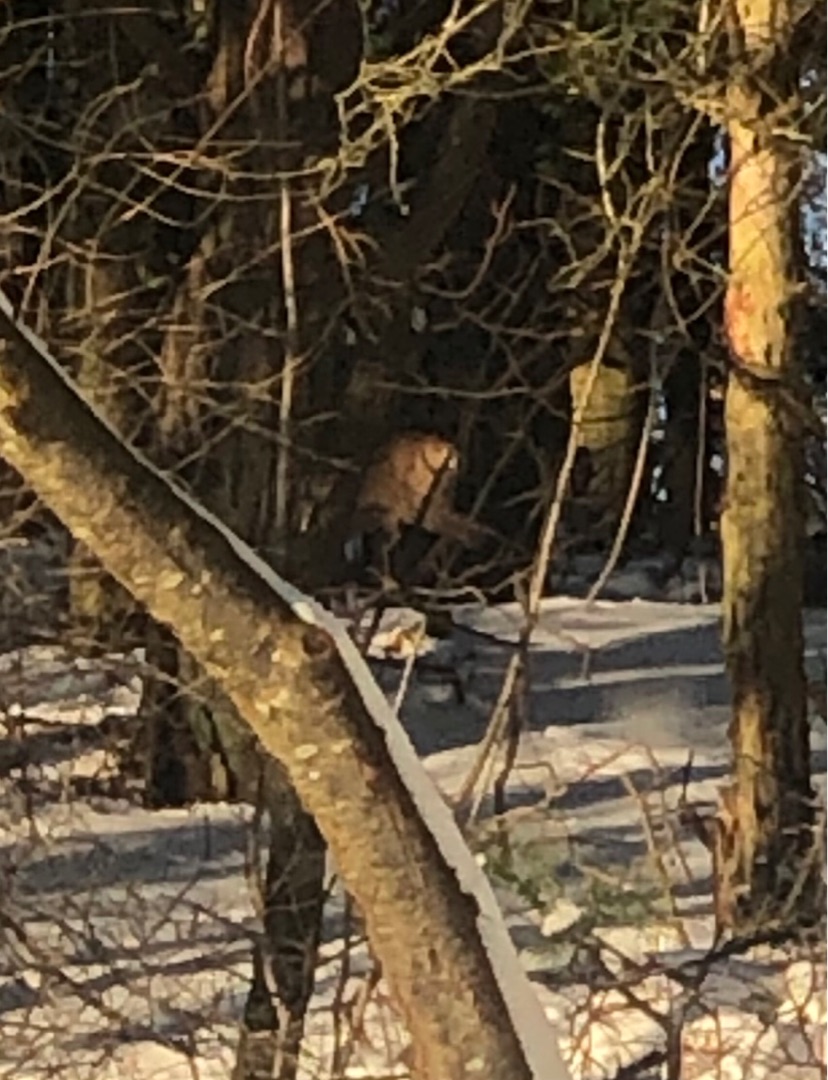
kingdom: Animalia
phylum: Chordata
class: Mammalia
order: Artiodactyla
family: Cervidae
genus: Capreolus
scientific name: Capreolus capreolus
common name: Rådyr
